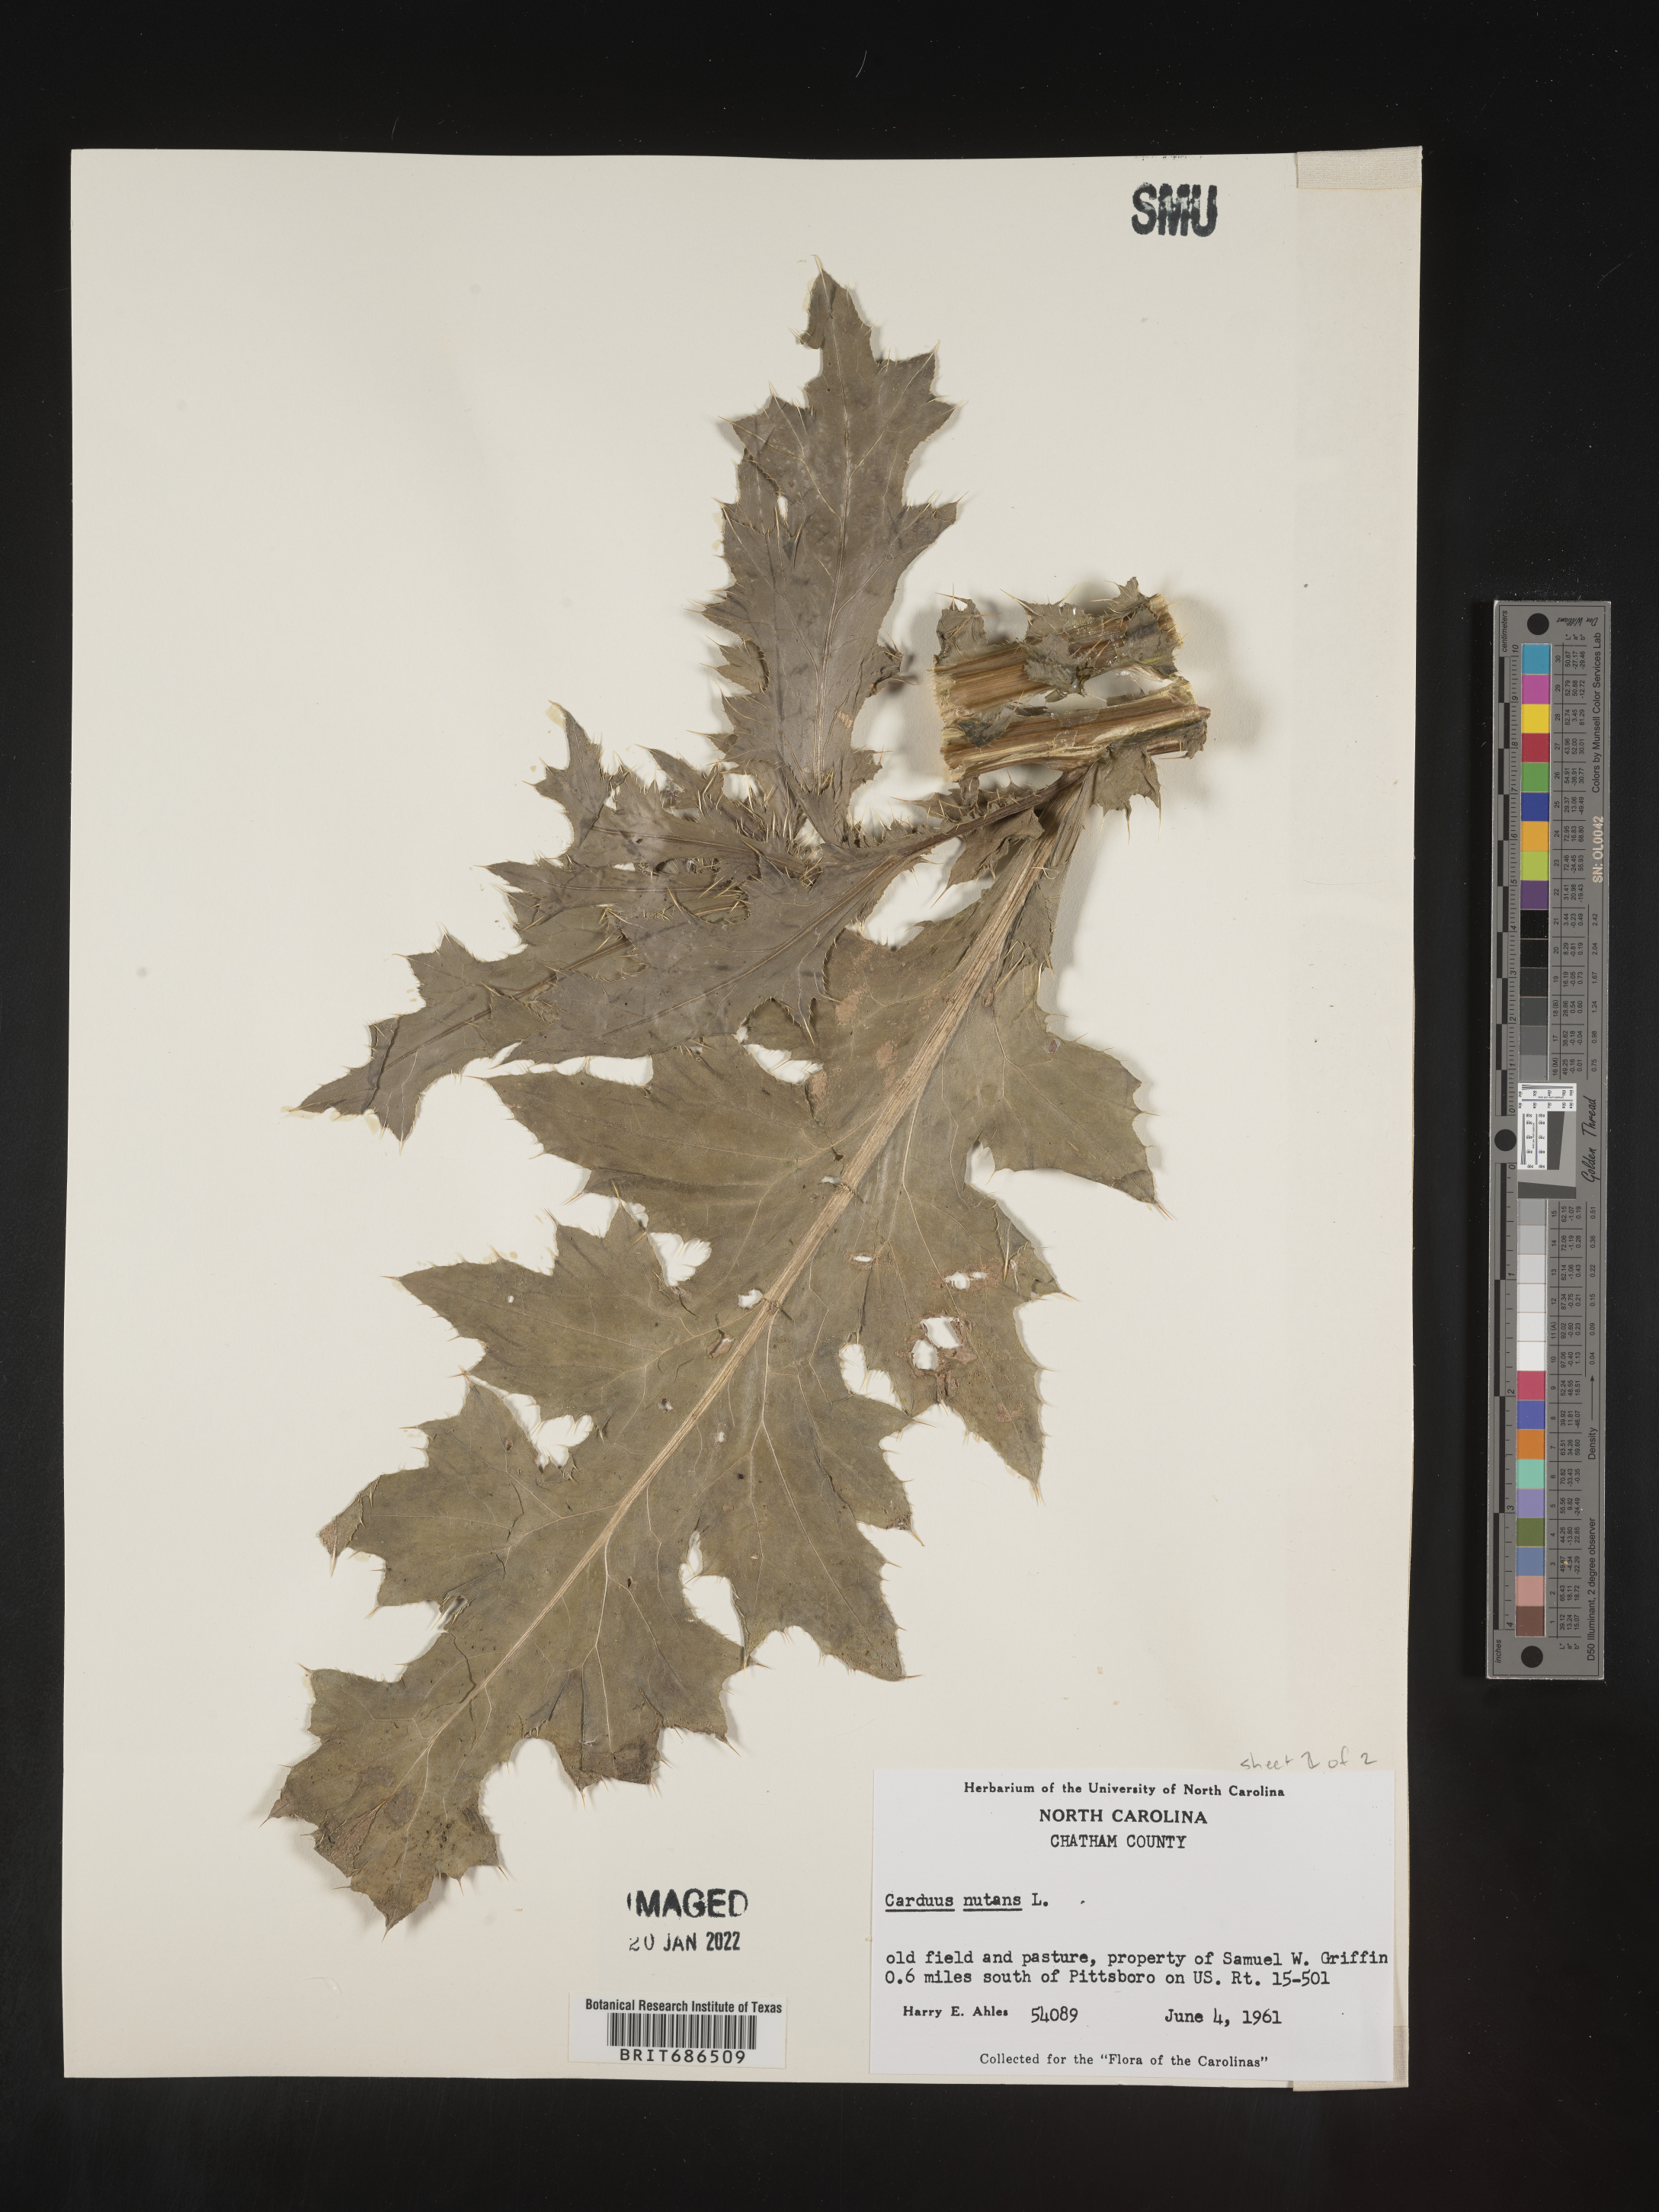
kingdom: Plantae
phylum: Tracheophyta
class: Magnoliopsida
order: Asterales
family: Asteraceae
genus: Carduus
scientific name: Carduus nutans
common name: Musk thistle
